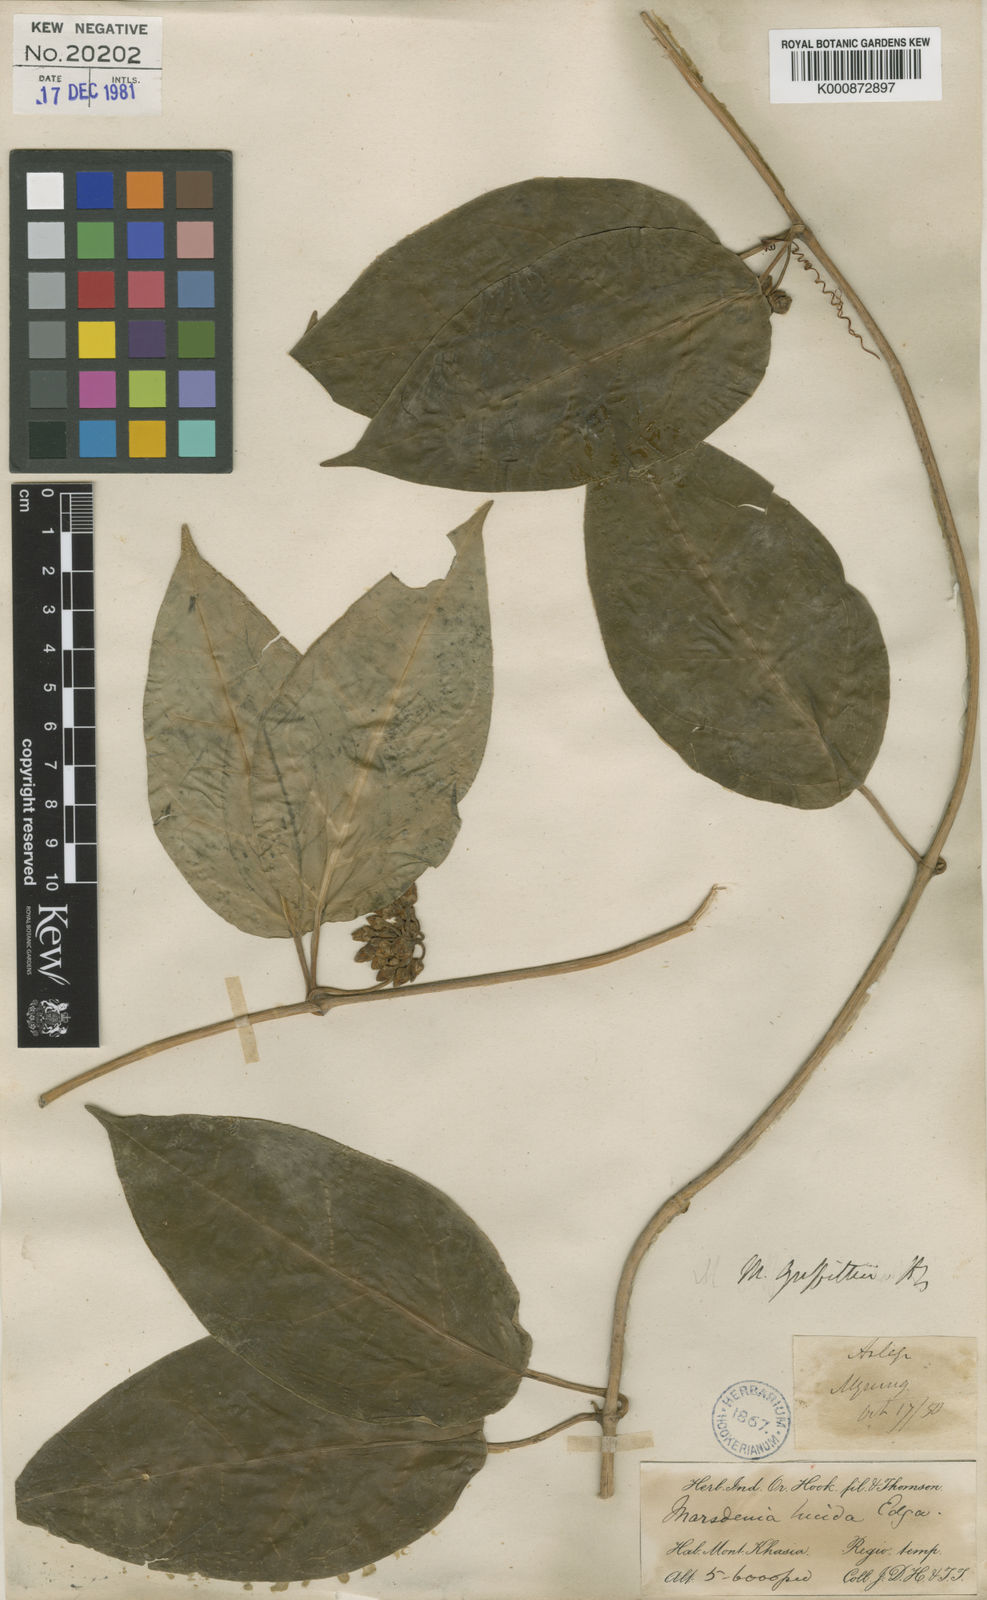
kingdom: Plantae
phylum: Tracheophyta
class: Magnoliopsida
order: Gentianales
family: Apocynaceae
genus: Sinomarsdenia
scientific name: Sinomarsdenia griffithii
